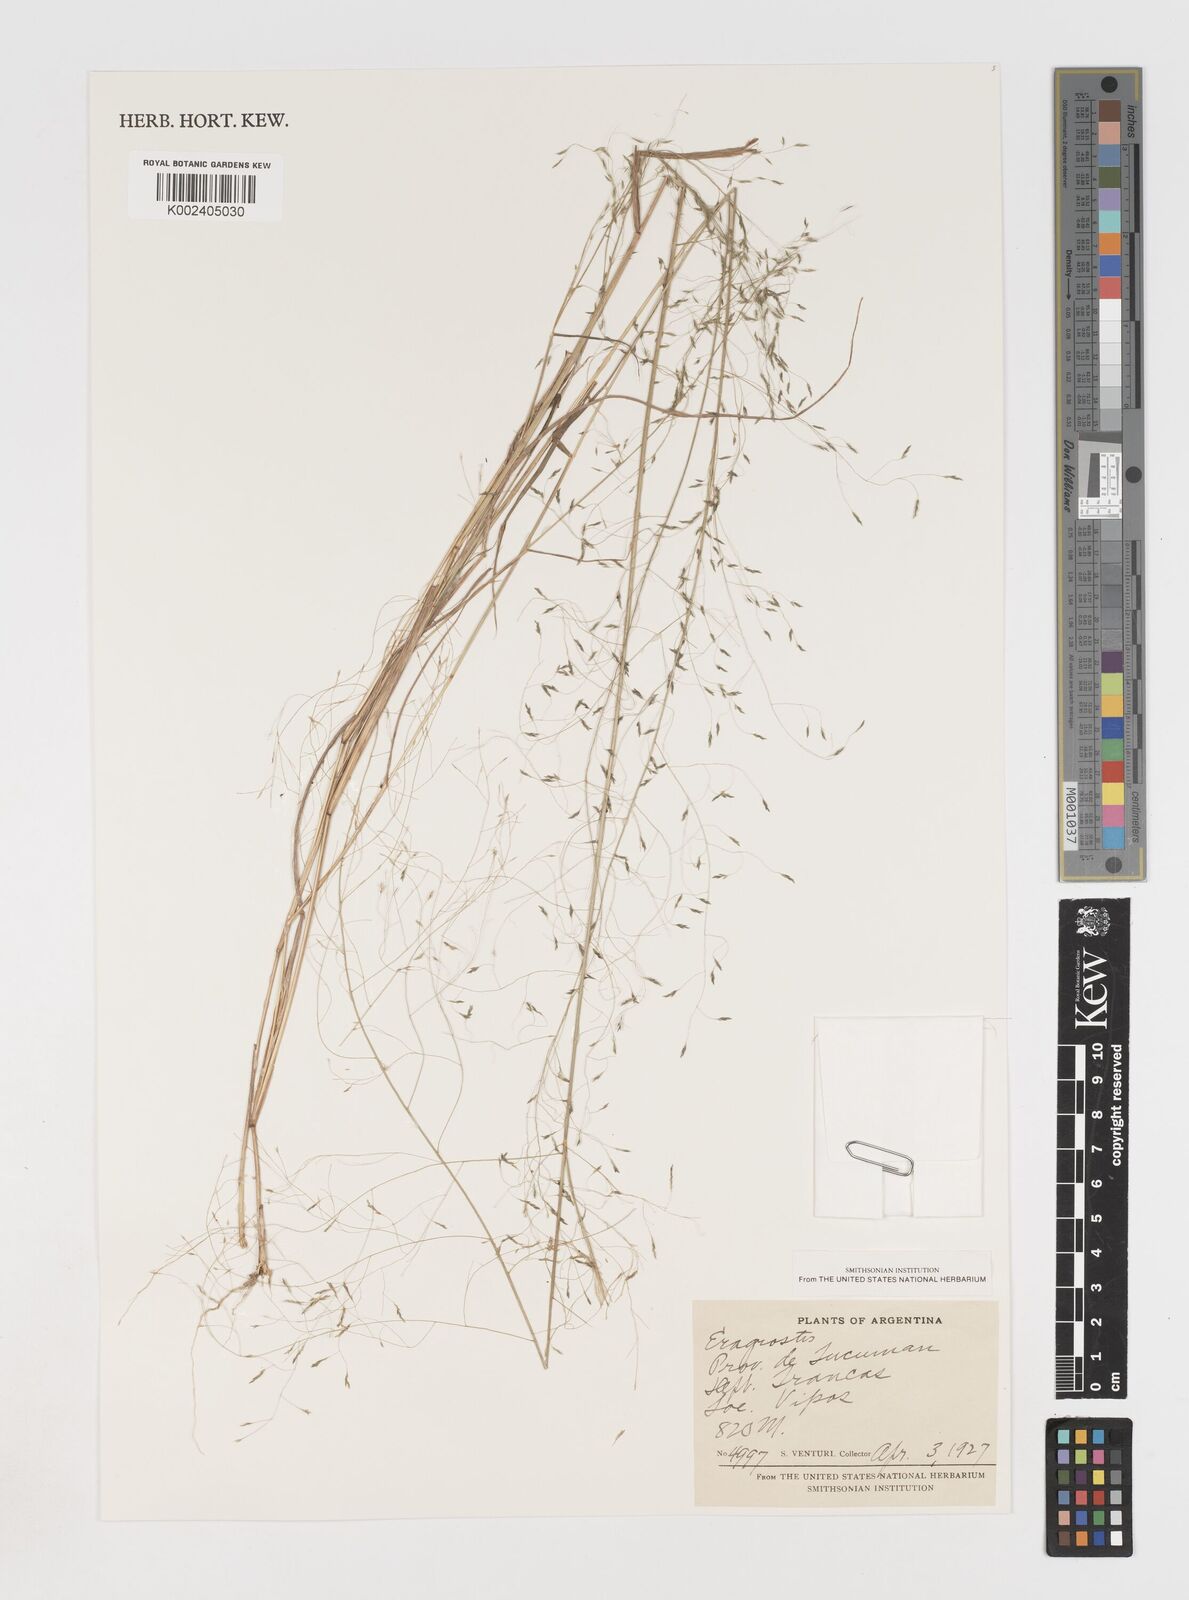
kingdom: Plantae
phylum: Tracheophyta
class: Liliopsida
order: Poales
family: Poaceae
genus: Eragrostis
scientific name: Eragrostis
